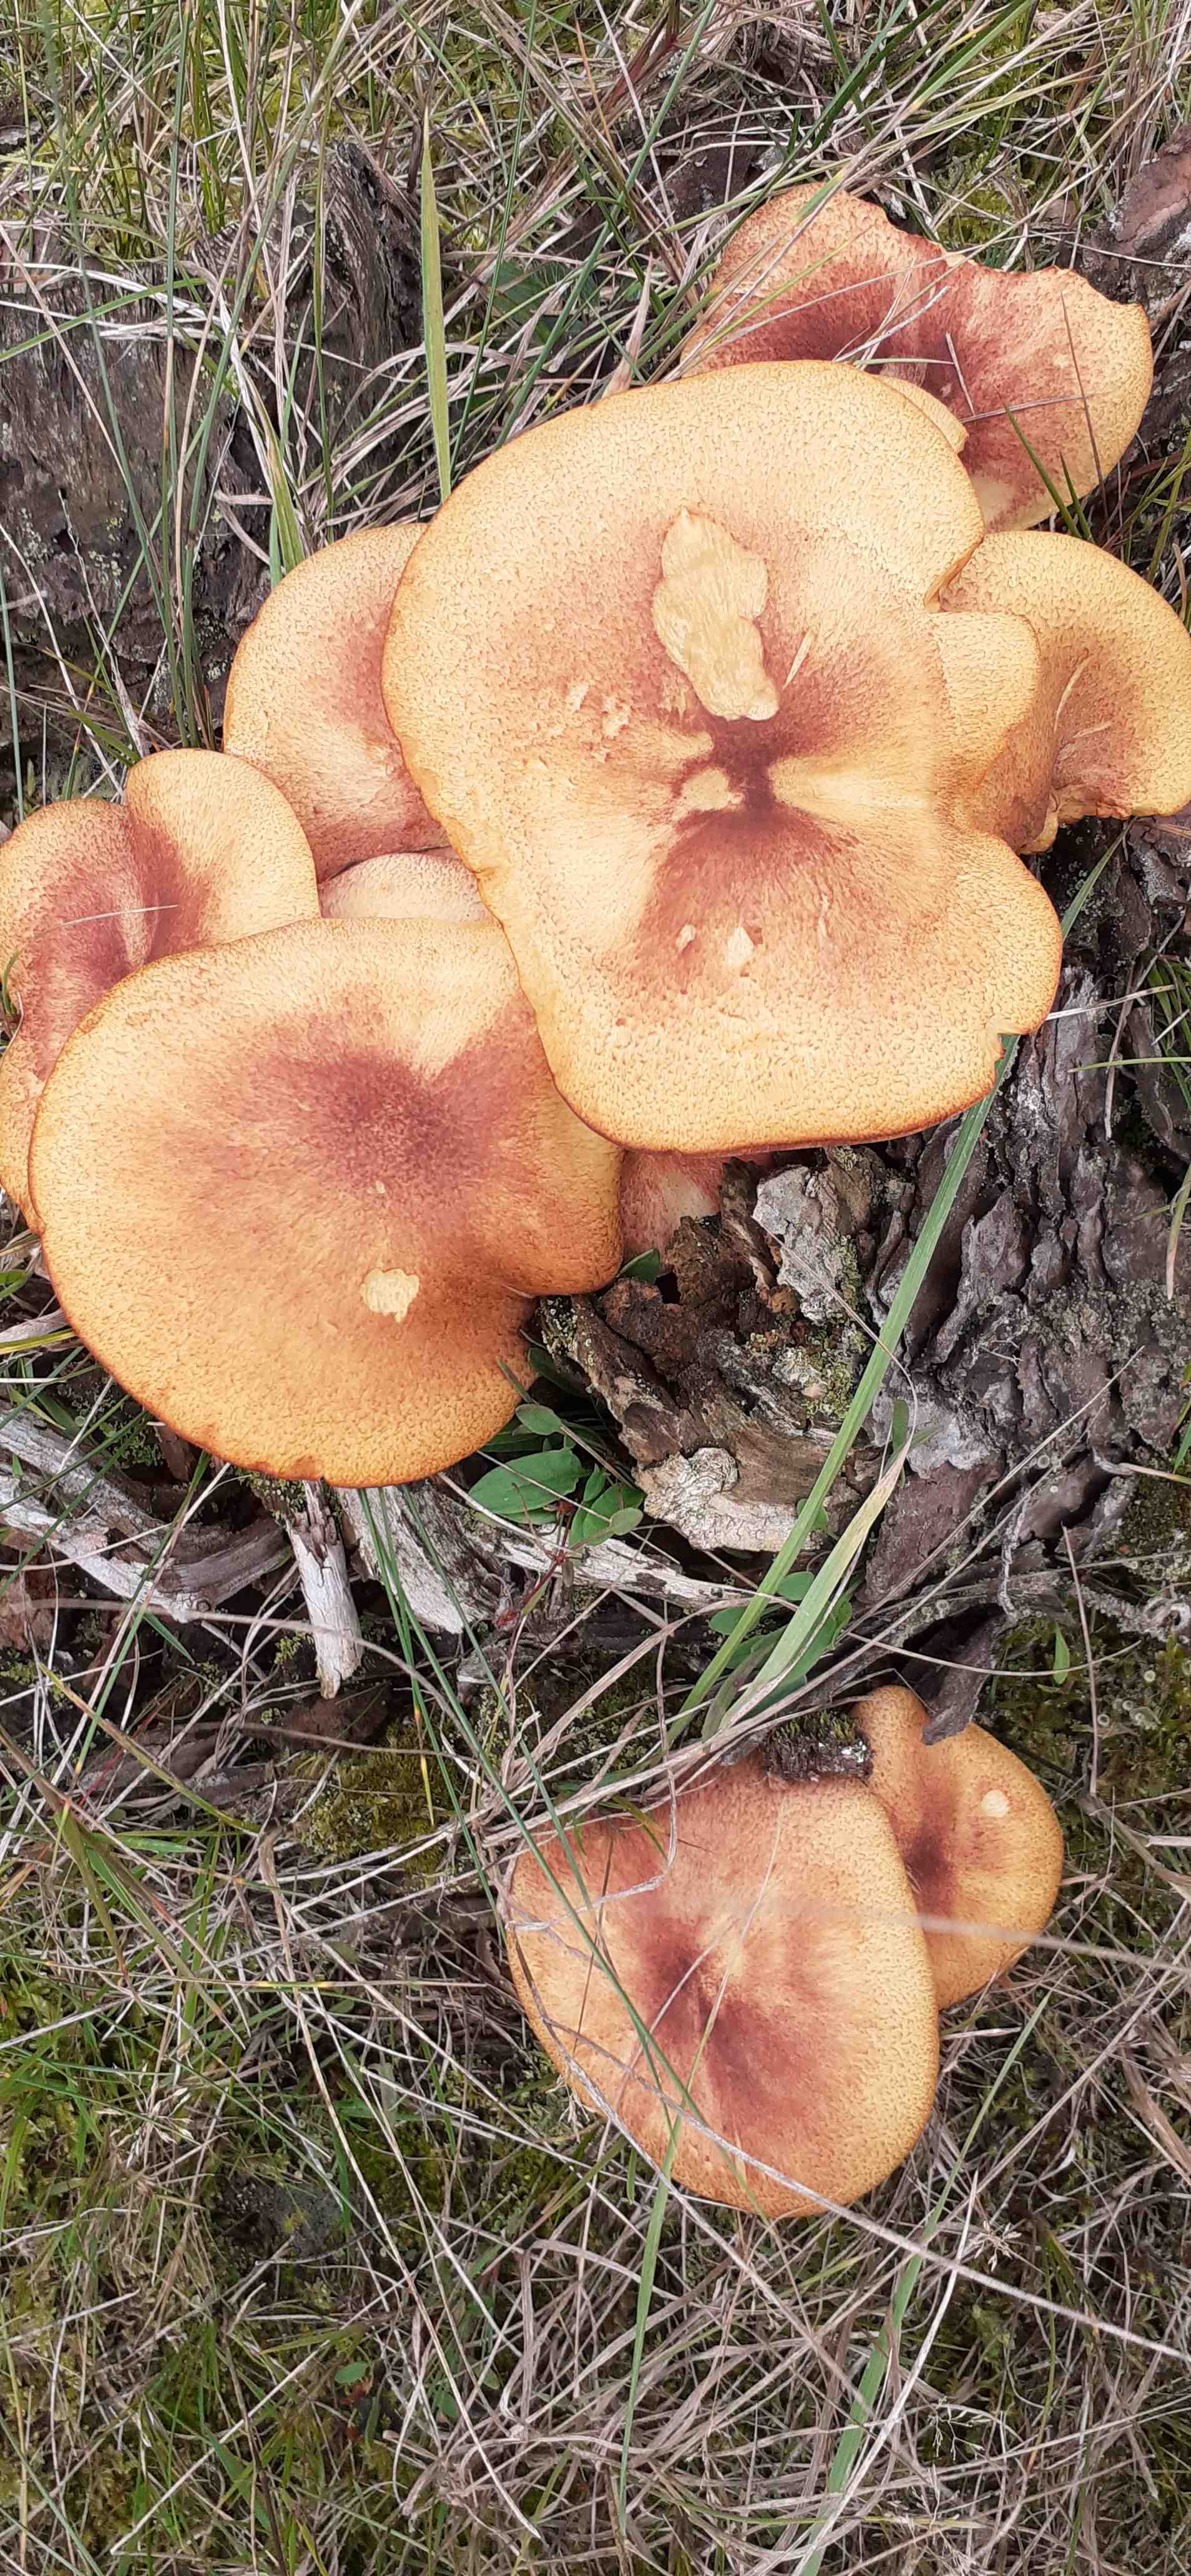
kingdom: Fungi
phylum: Basidiomycota
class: Agaricomycetes
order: Agaricales
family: Tricholomataceae
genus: Tricholomopsis
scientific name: Tricholomopsis rutilans
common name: purpur-væbnerhat
